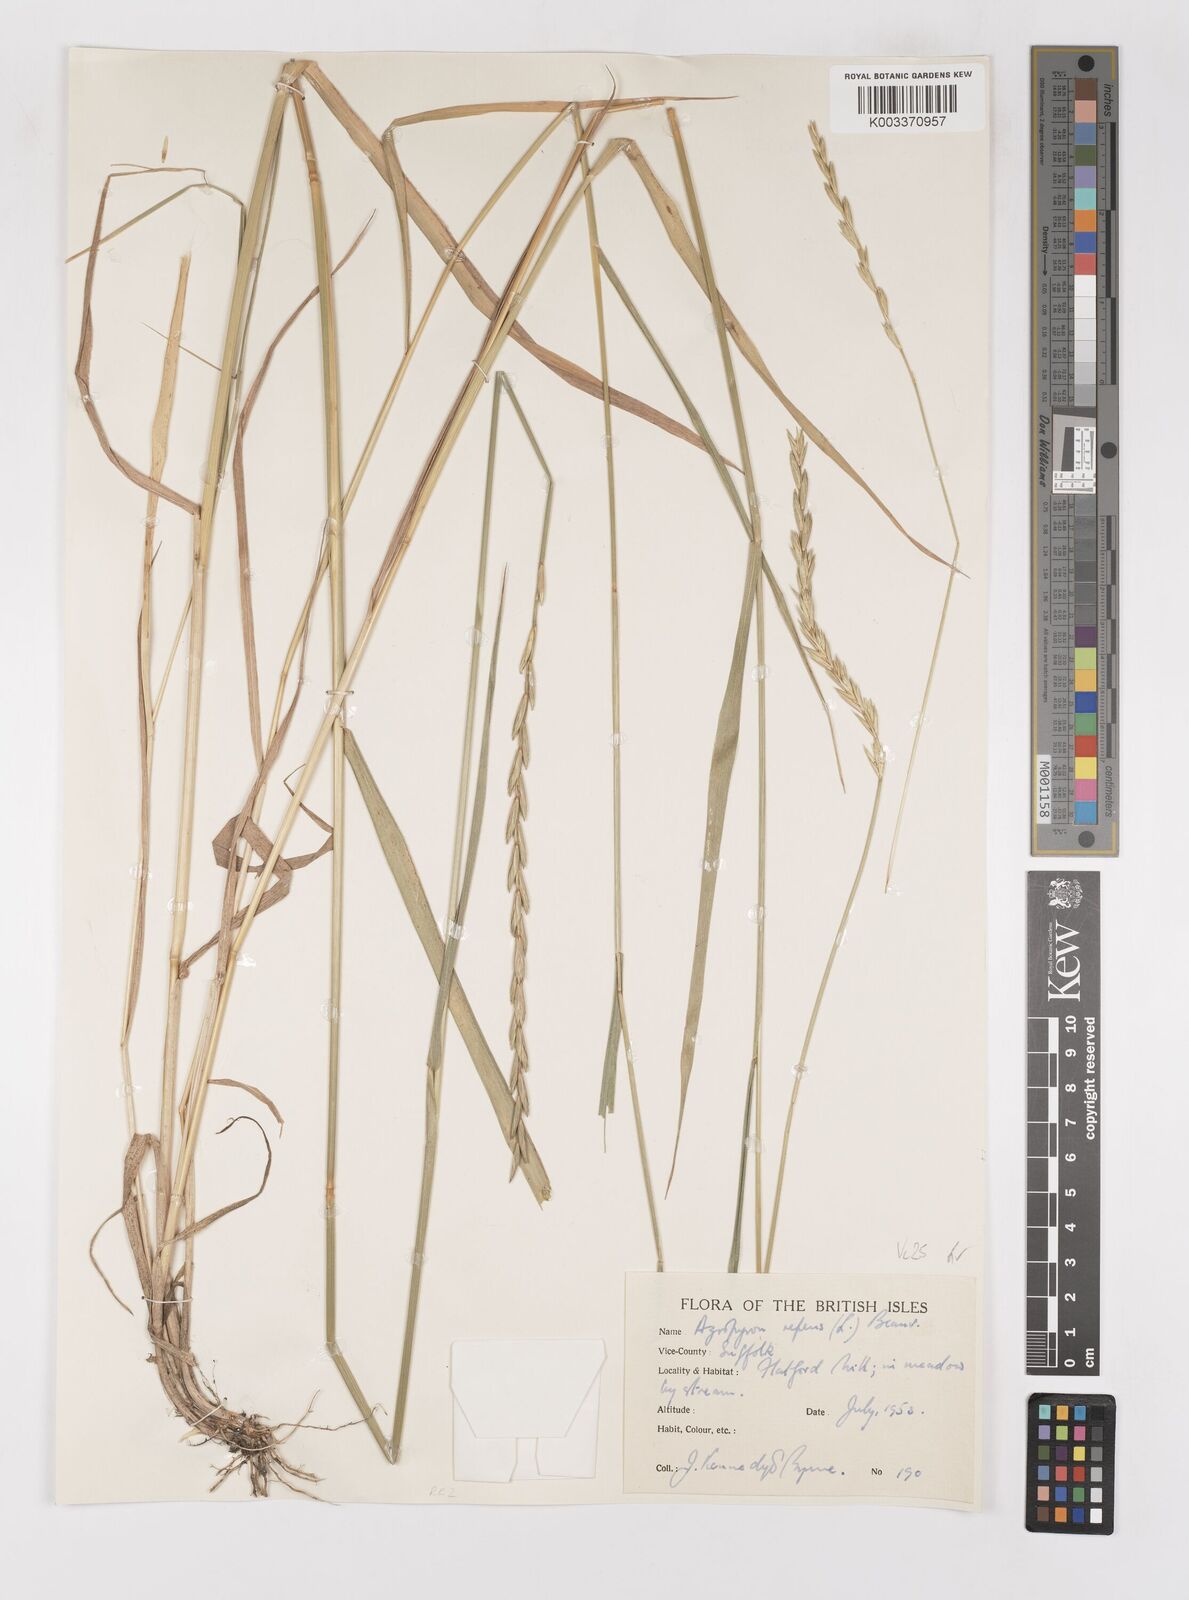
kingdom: Plantae
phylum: Tracheophyta
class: Liliopsida
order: Poales
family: Poaceae
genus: Elymus
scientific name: Elymus repens
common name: Quackgrass
